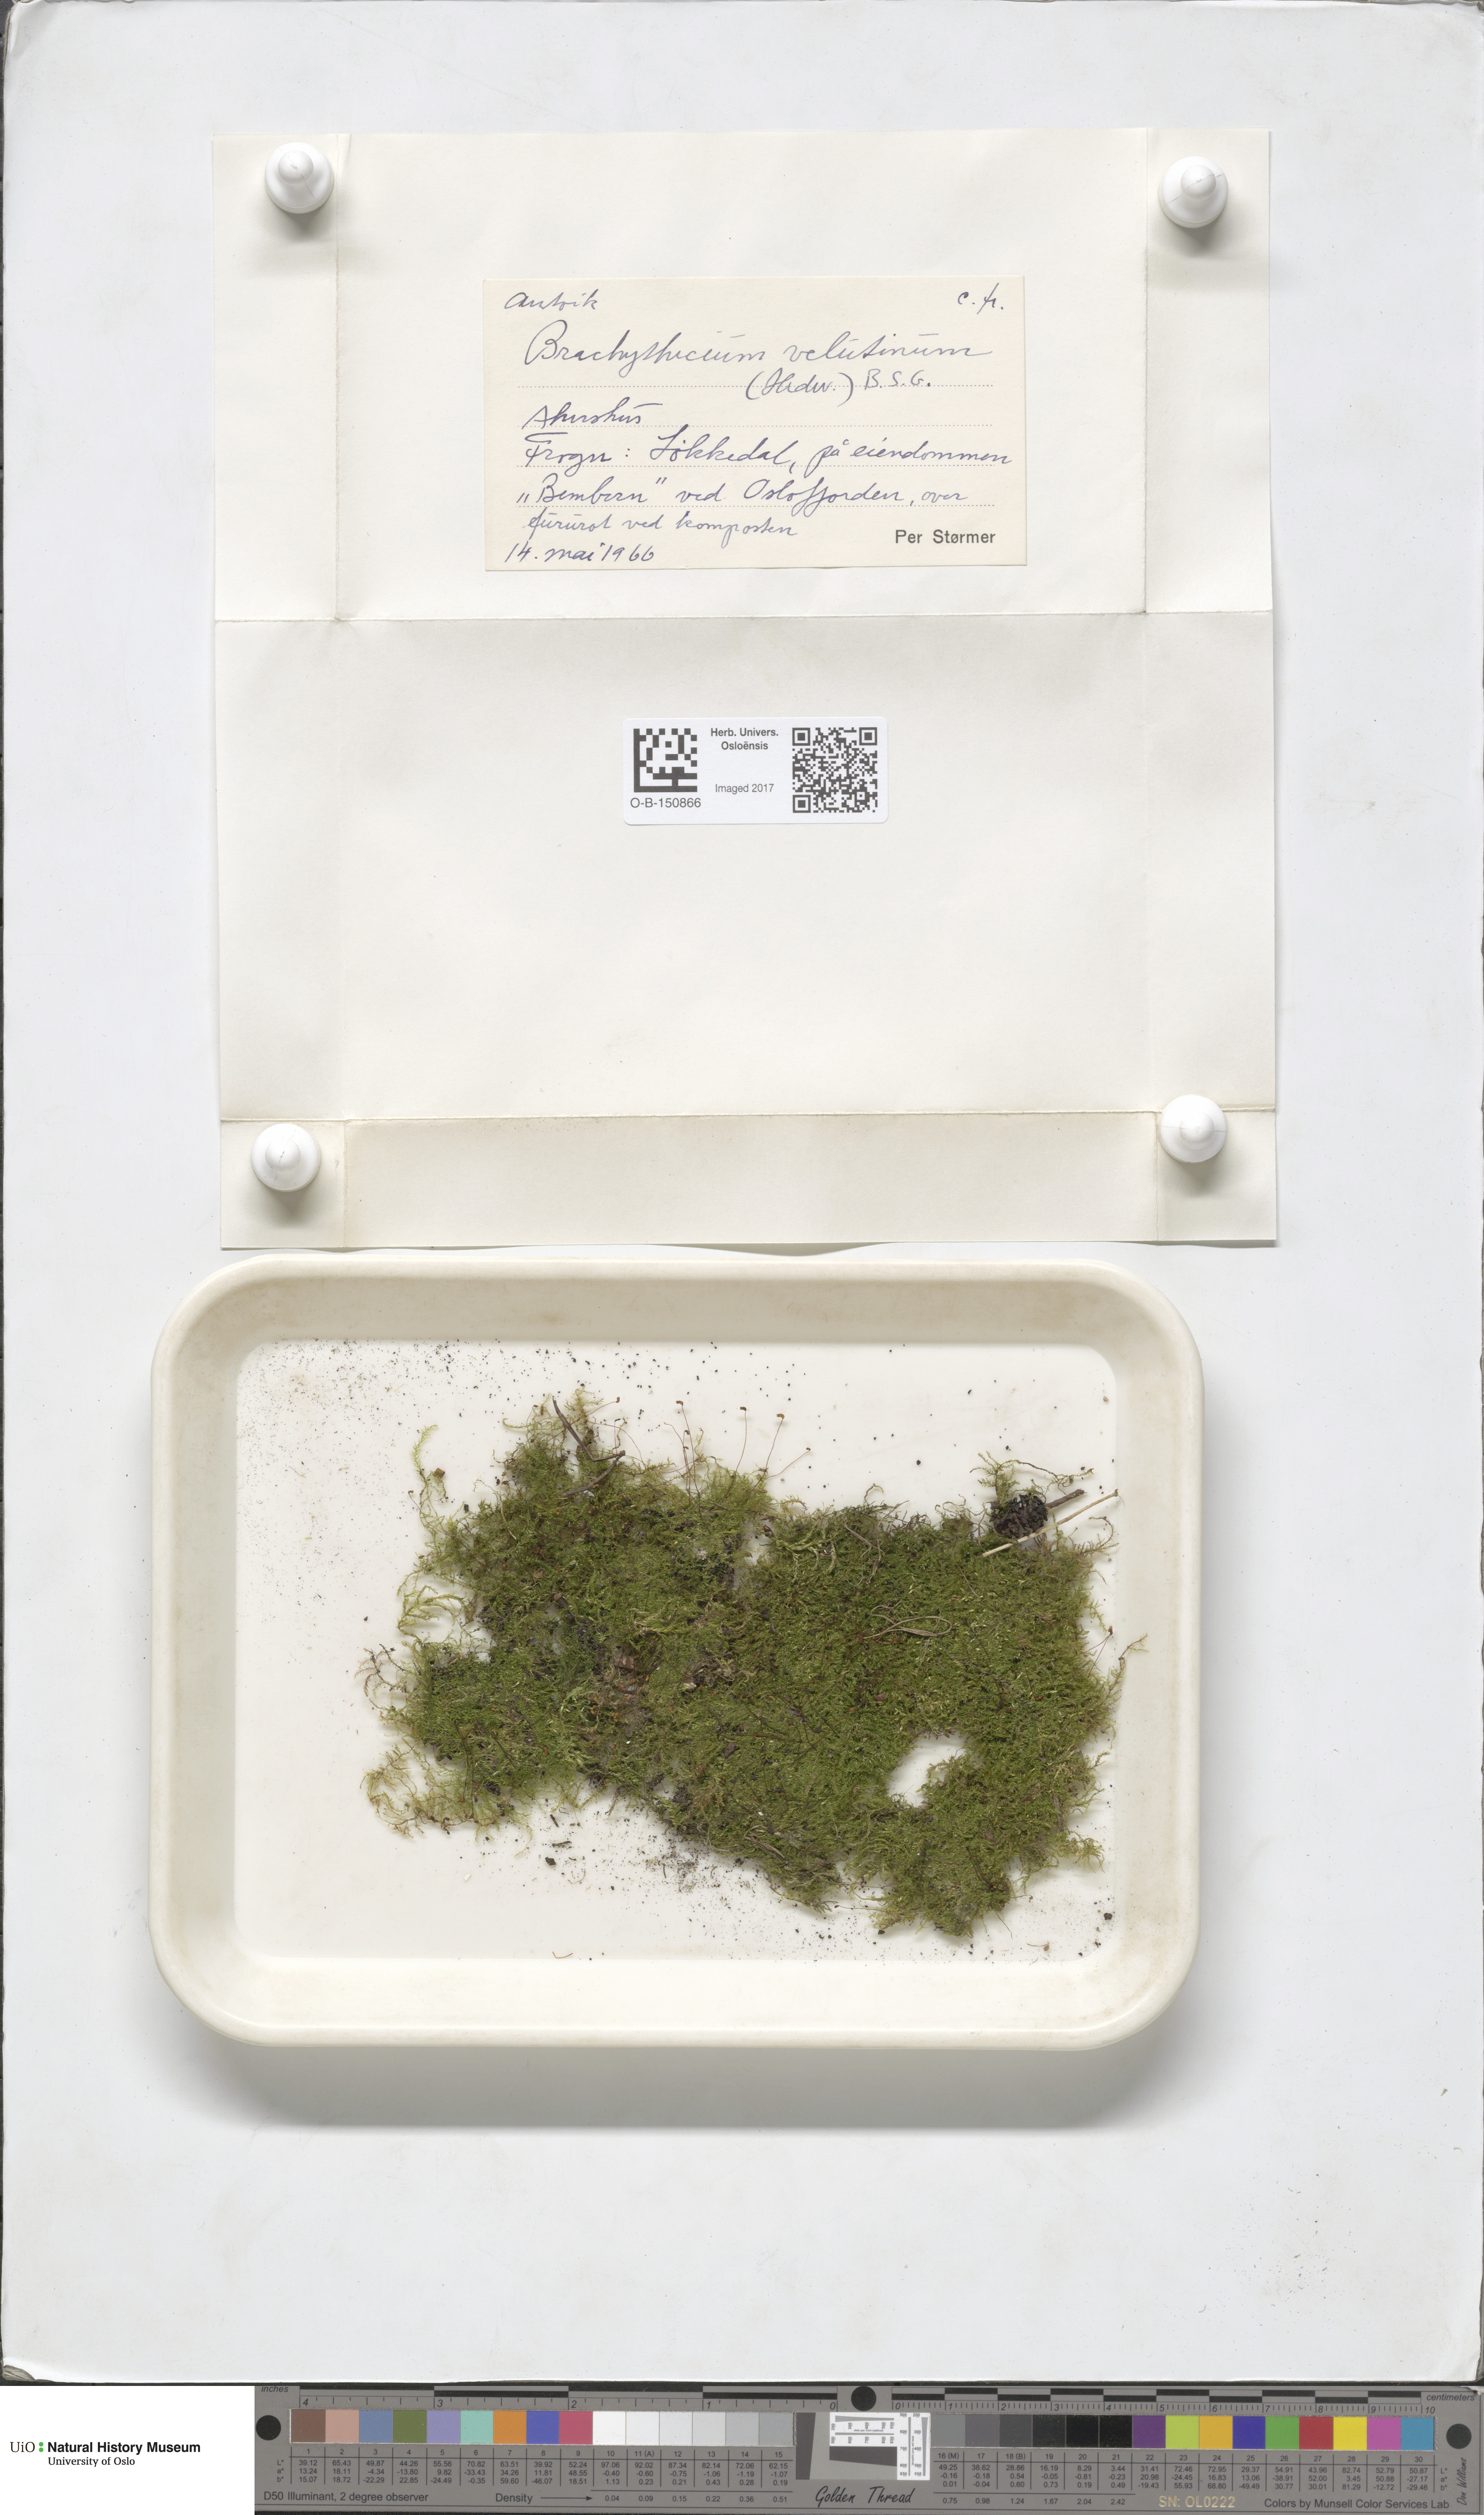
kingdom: Plantae
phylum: Bryophyta
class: Bryopsida
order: Hypnales
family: Brachytheciaceae
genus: Brachytheciastrum
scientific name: Brachytheciastrum velutinum
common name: Velvet feather-moss
